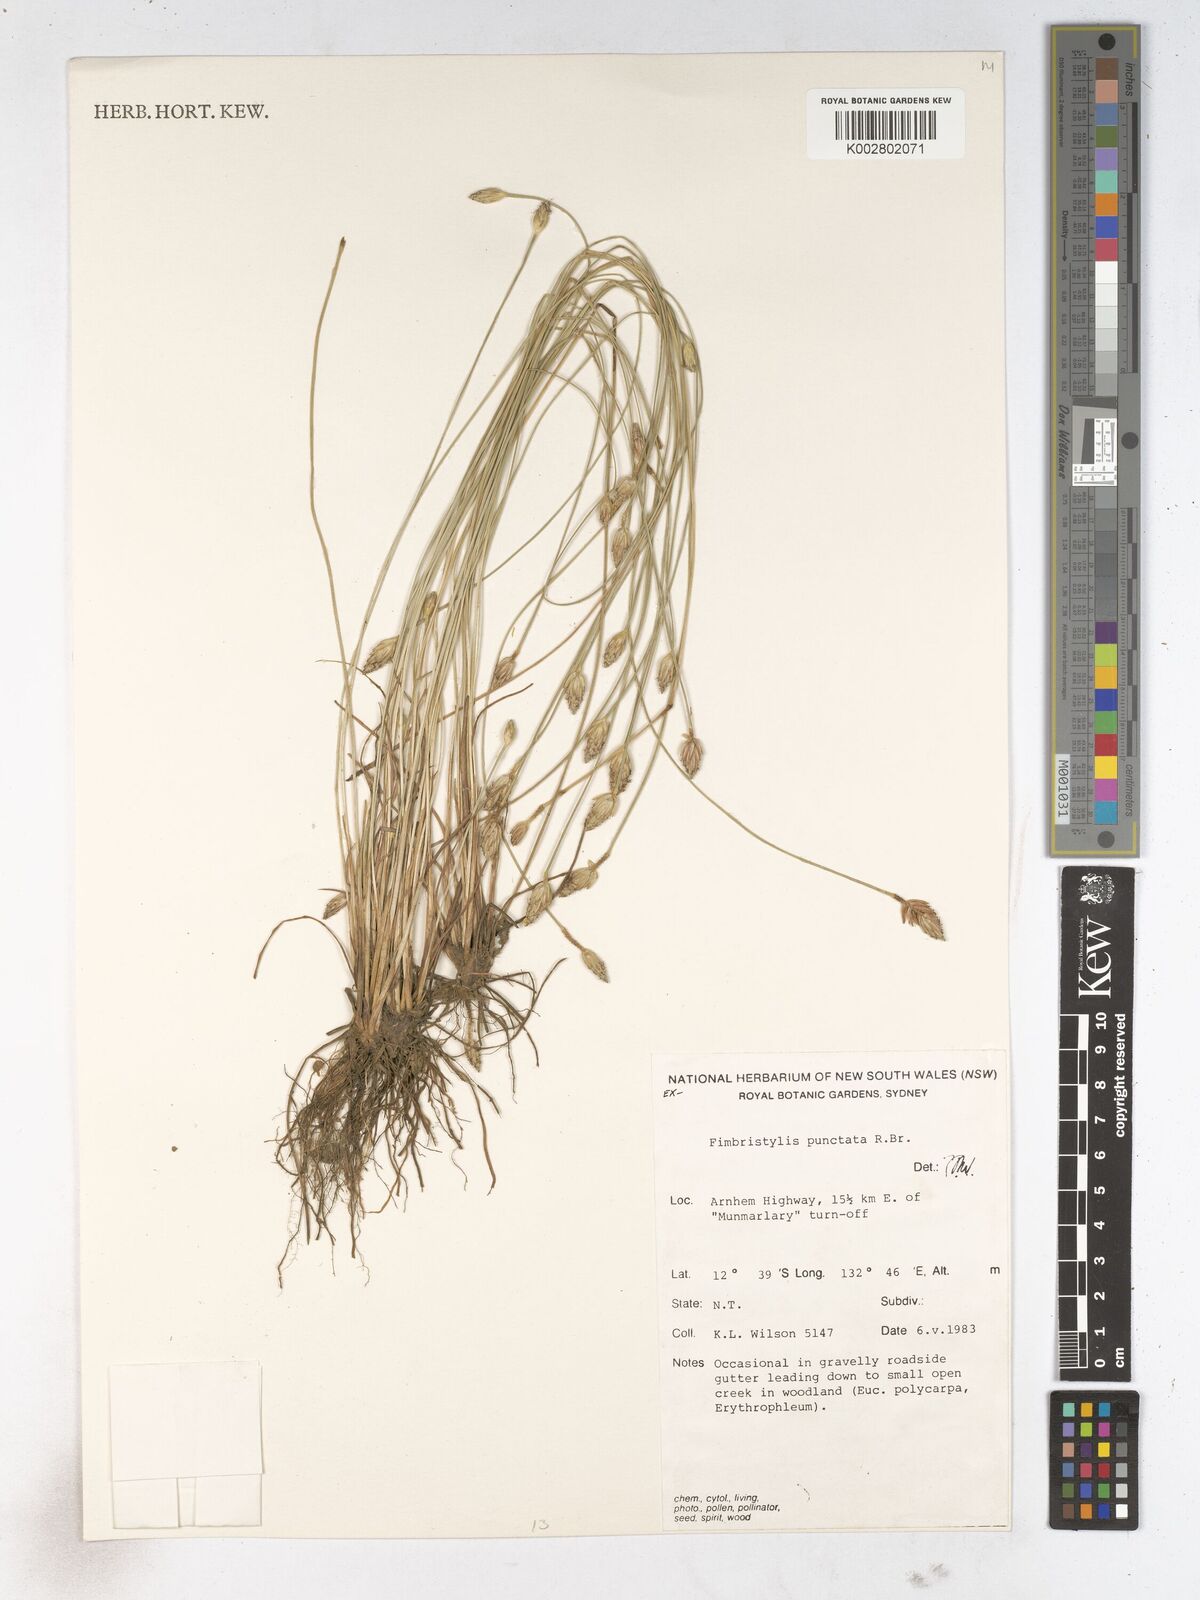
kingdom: Plantae
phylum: Tracheophyta
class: Liliopsida
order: Poales
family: Cyperaceae
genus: Fimbristylis
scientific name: Fimbristylis punctata
